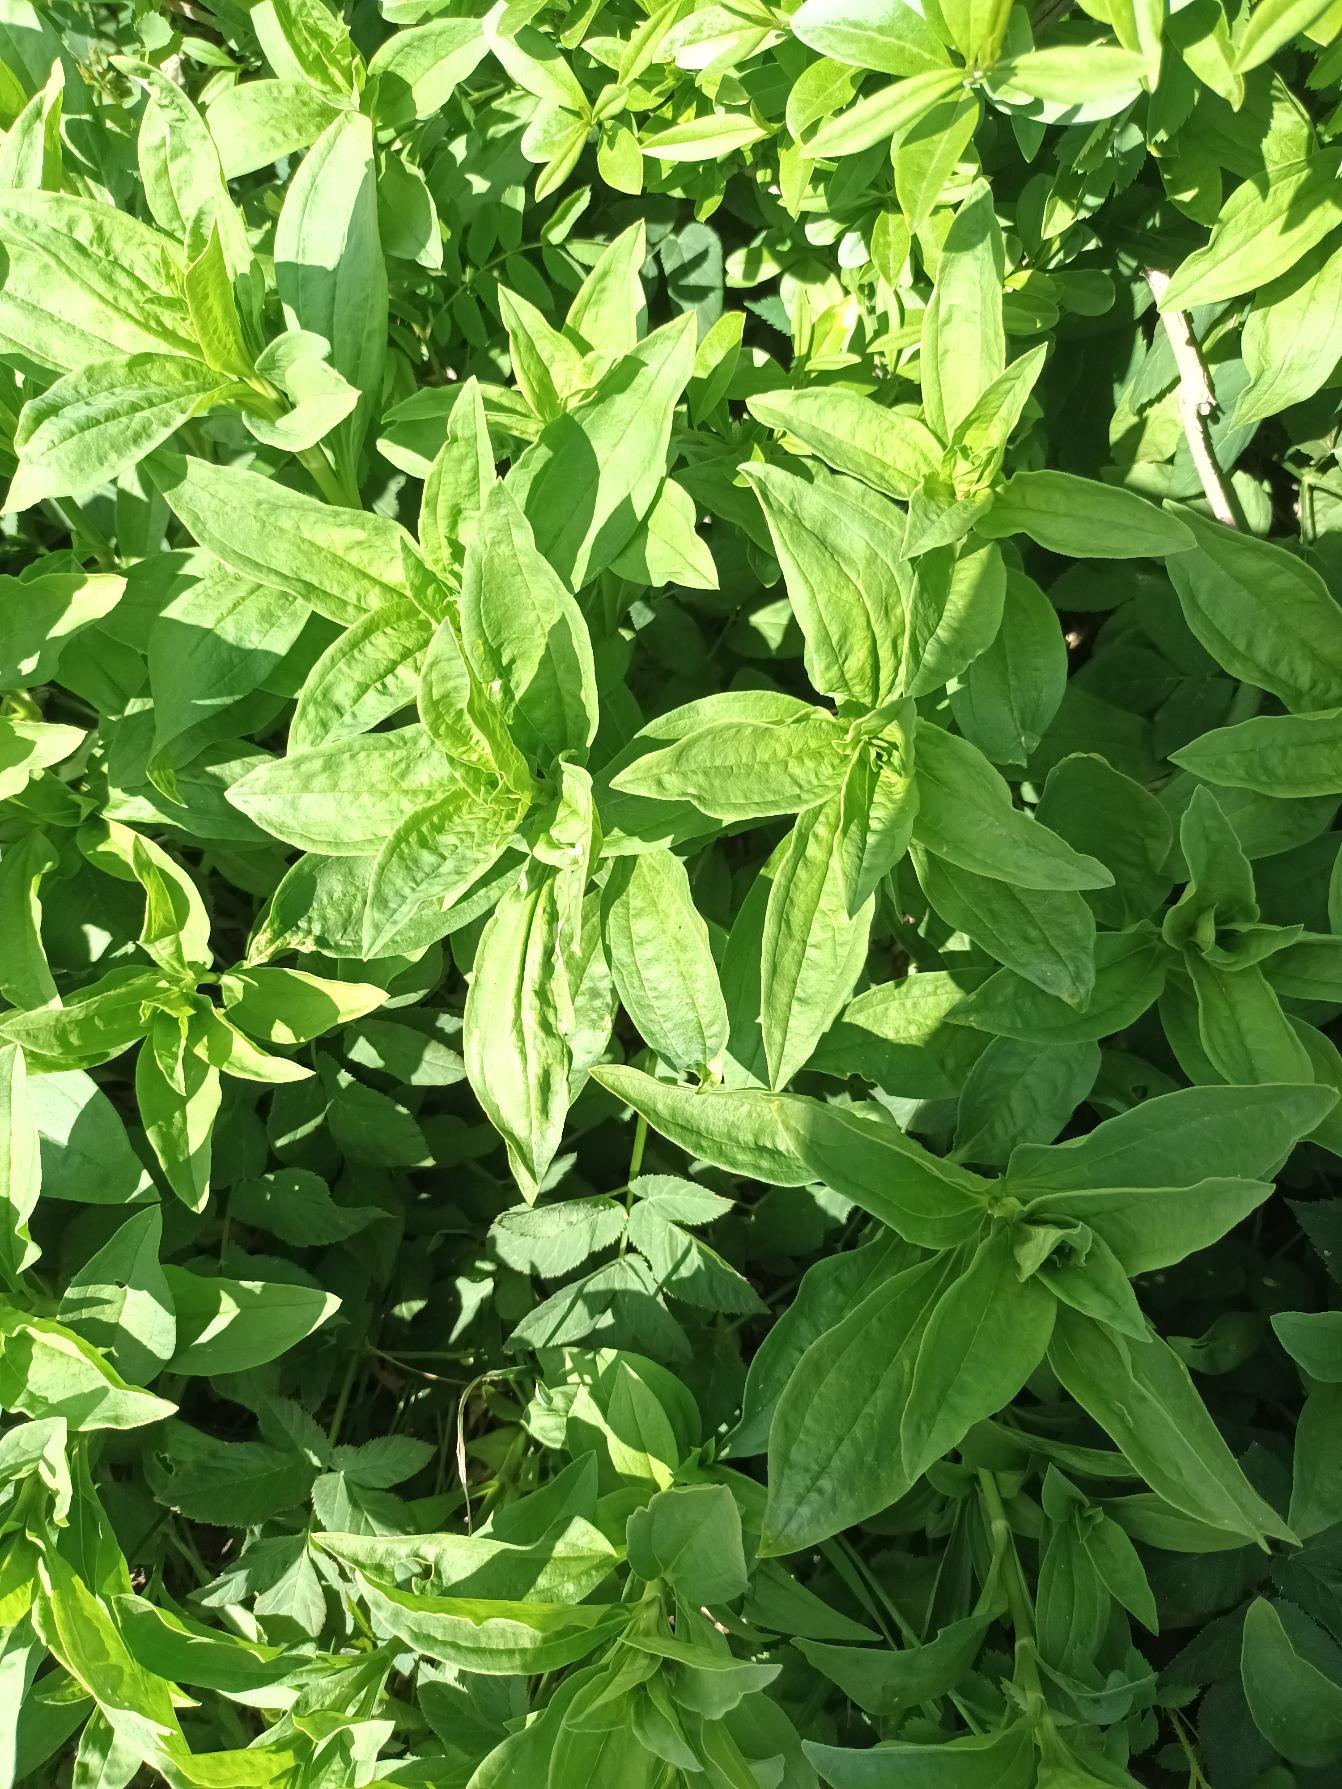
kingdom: Plantae
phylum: Tracheophyta
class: Magnoliopsida
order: Caryophyllales
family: Caryophyllaceae
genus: Saponaria
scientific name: Saponaria officinalis
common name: Sæbeurt
